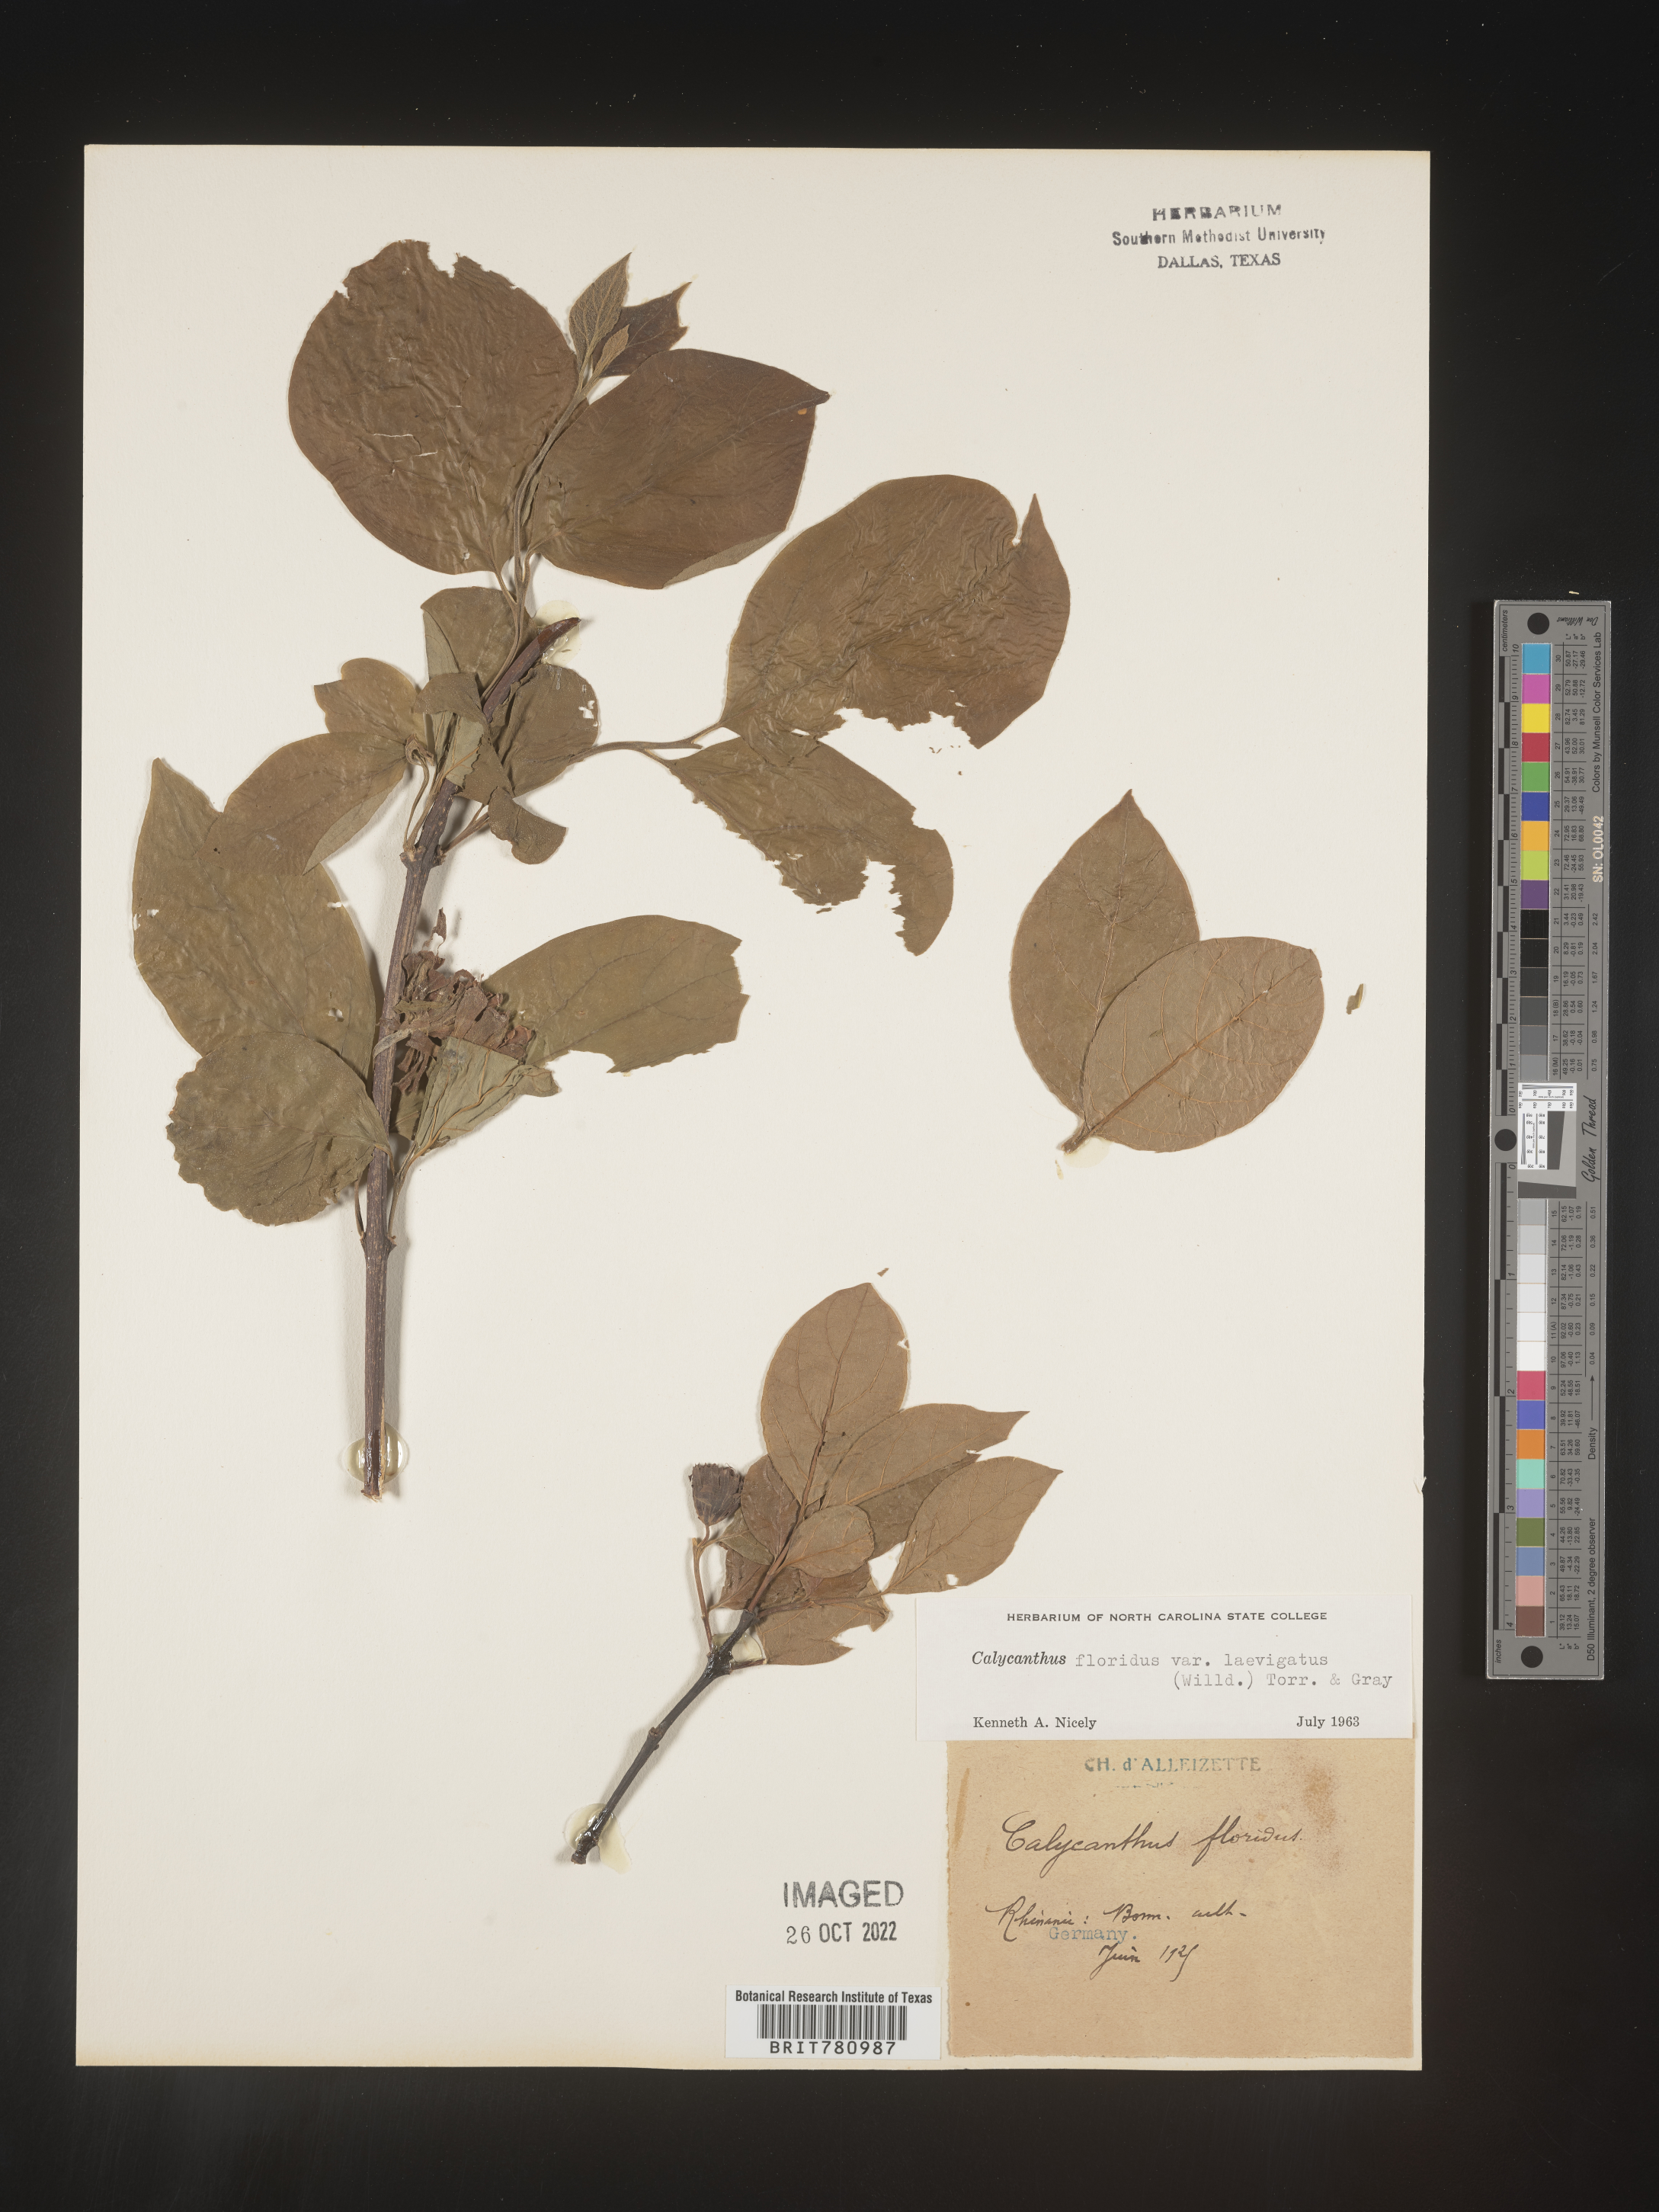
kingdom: Plantae
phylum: Tracheophyta
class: Magnoliopsida
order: Laurales
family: Calycanthaceae
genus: Calycanthus
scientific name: Calycanthus
